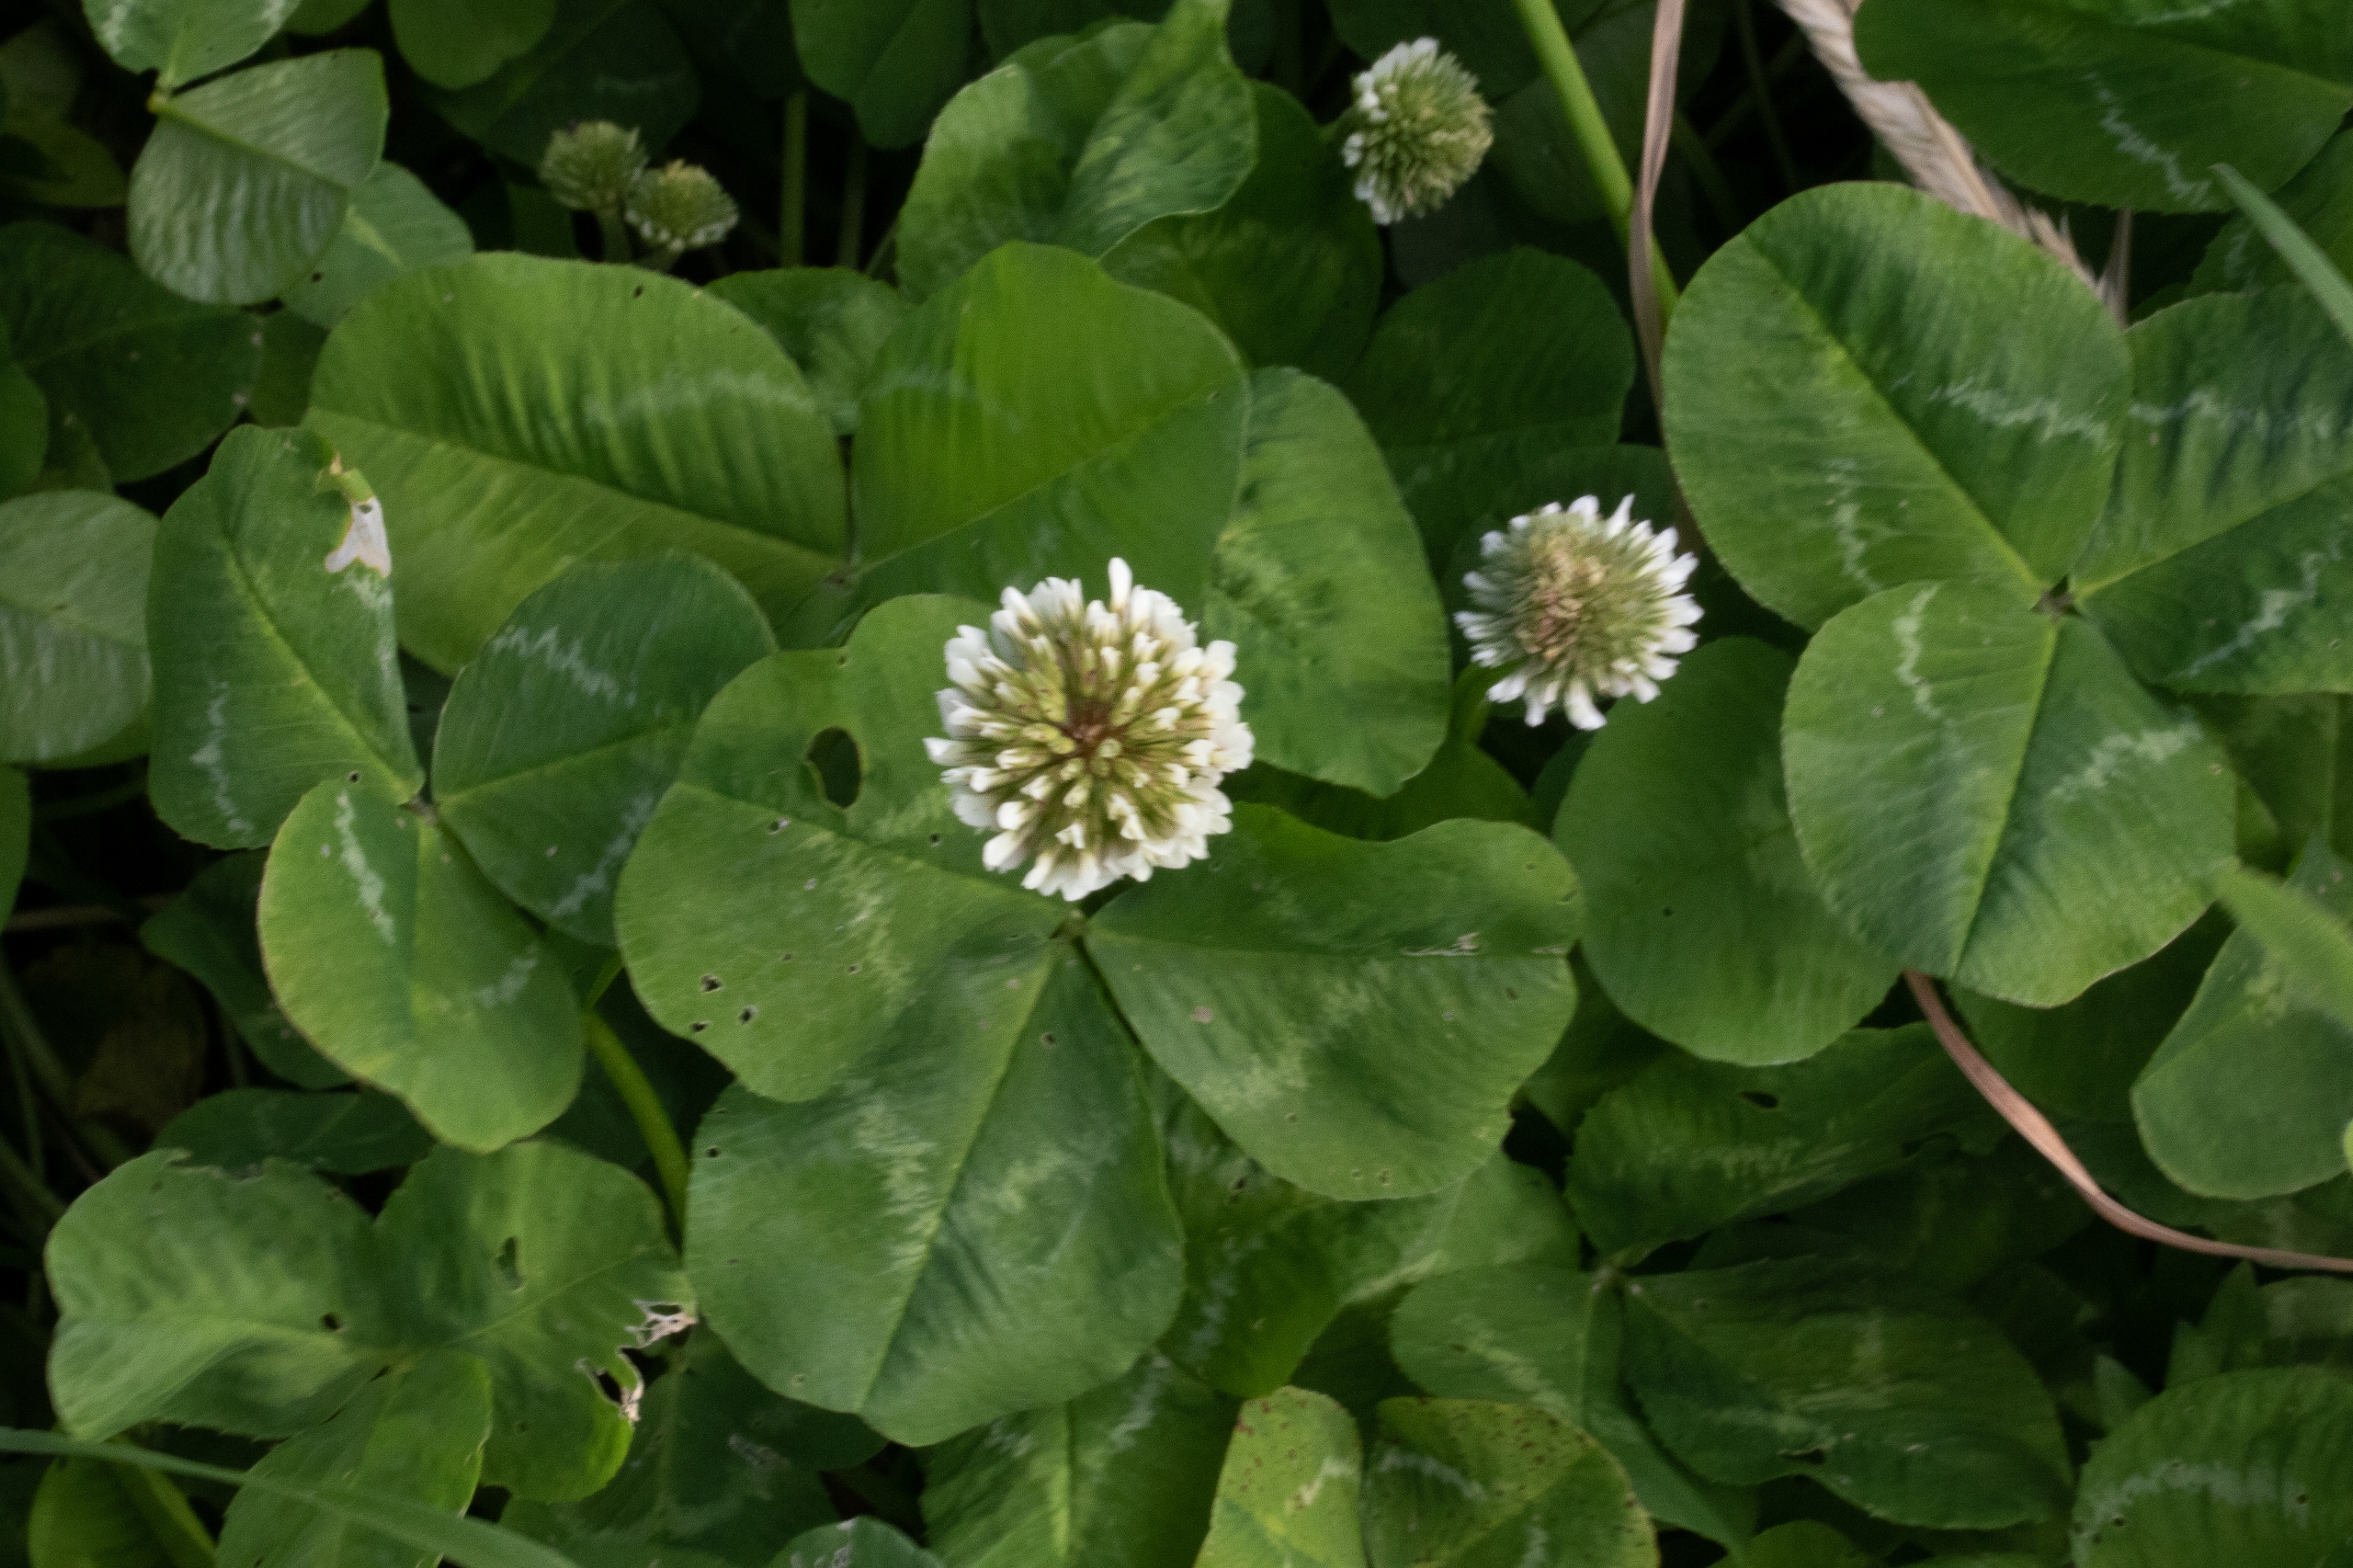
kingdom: Plantae
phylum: Tracheophyta
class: Magnoliopsida
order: Fabales
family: Fabaceae
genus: Trifolium
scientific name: Trifolium repens
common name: Hvid-kløver
